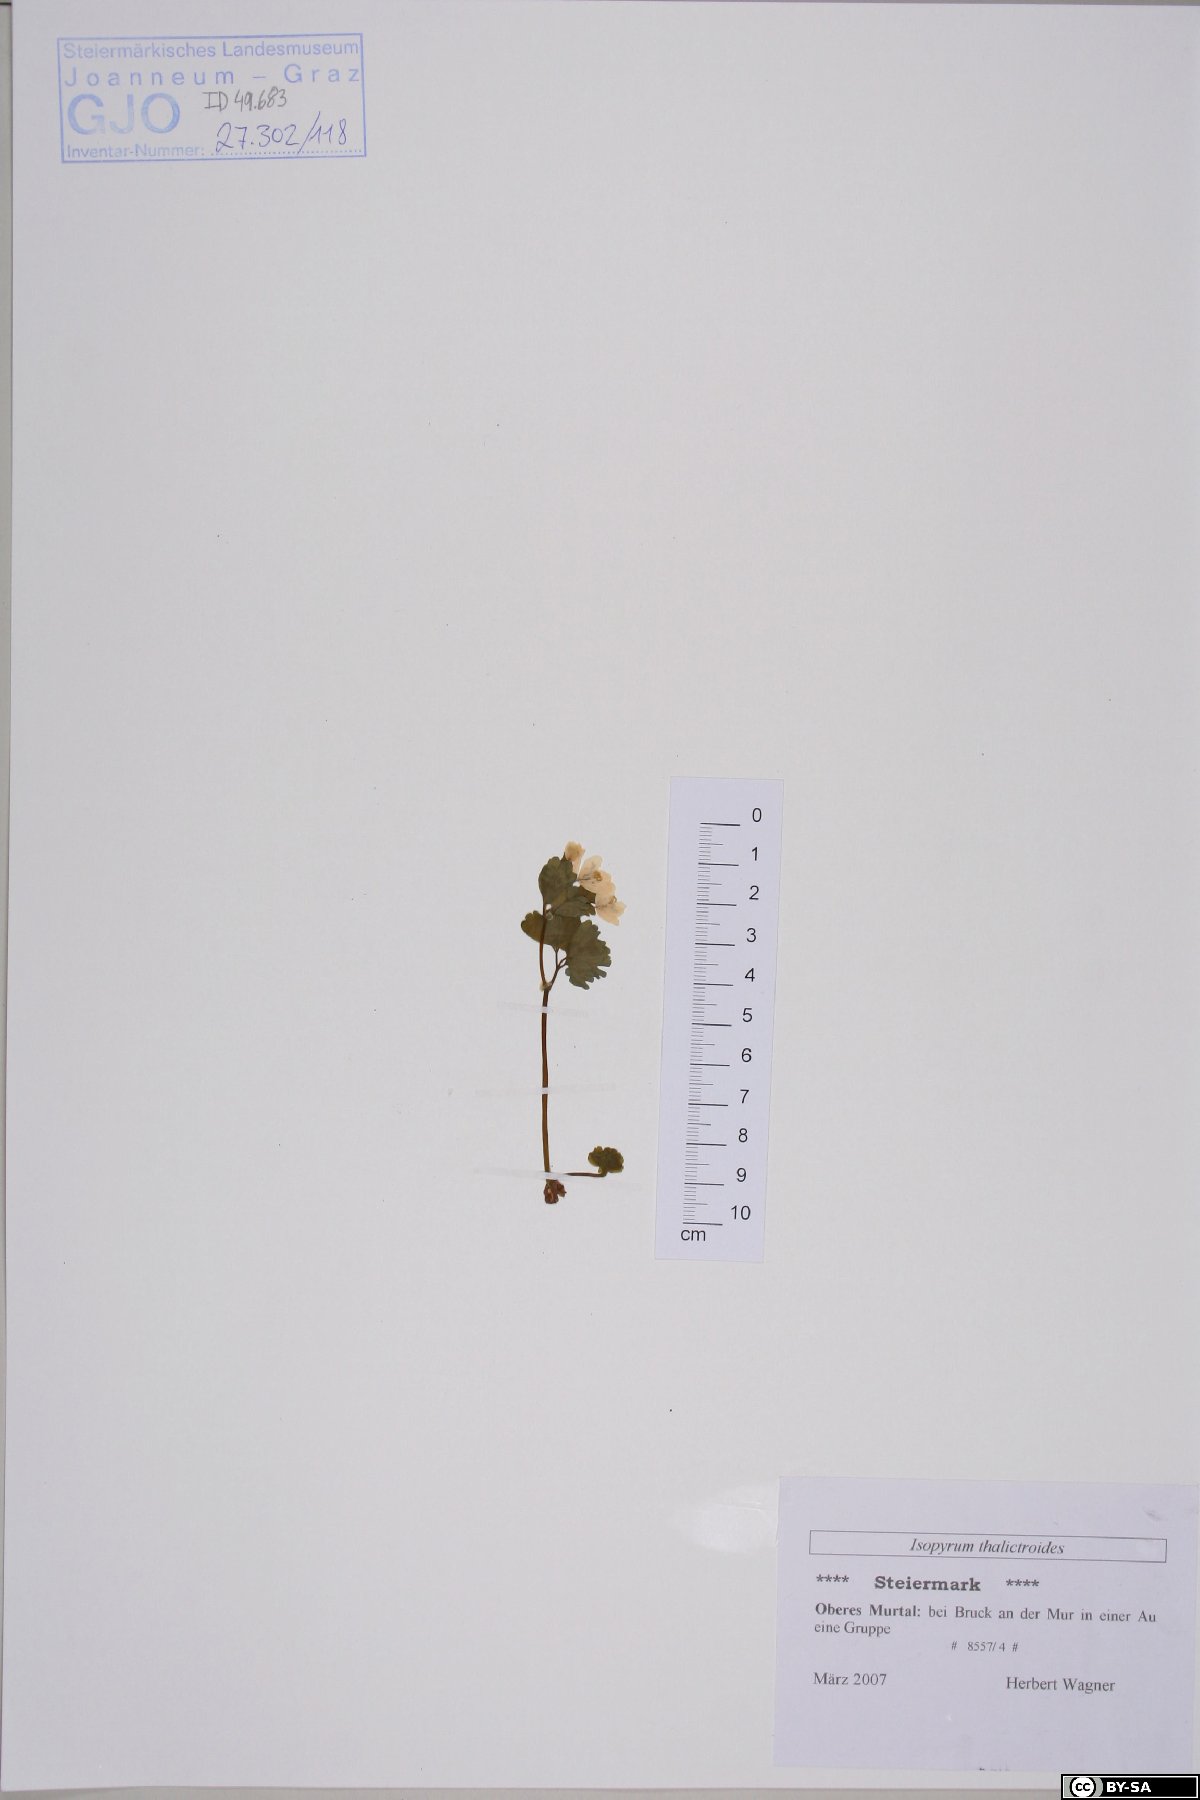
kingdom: Plantae
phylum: Tracheophyta
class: Magnoliopsida
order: Ranunculales
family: Ranunculaceae
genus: Isopyrum
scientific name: Isopyrum thalictroides
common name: Isopyrum
